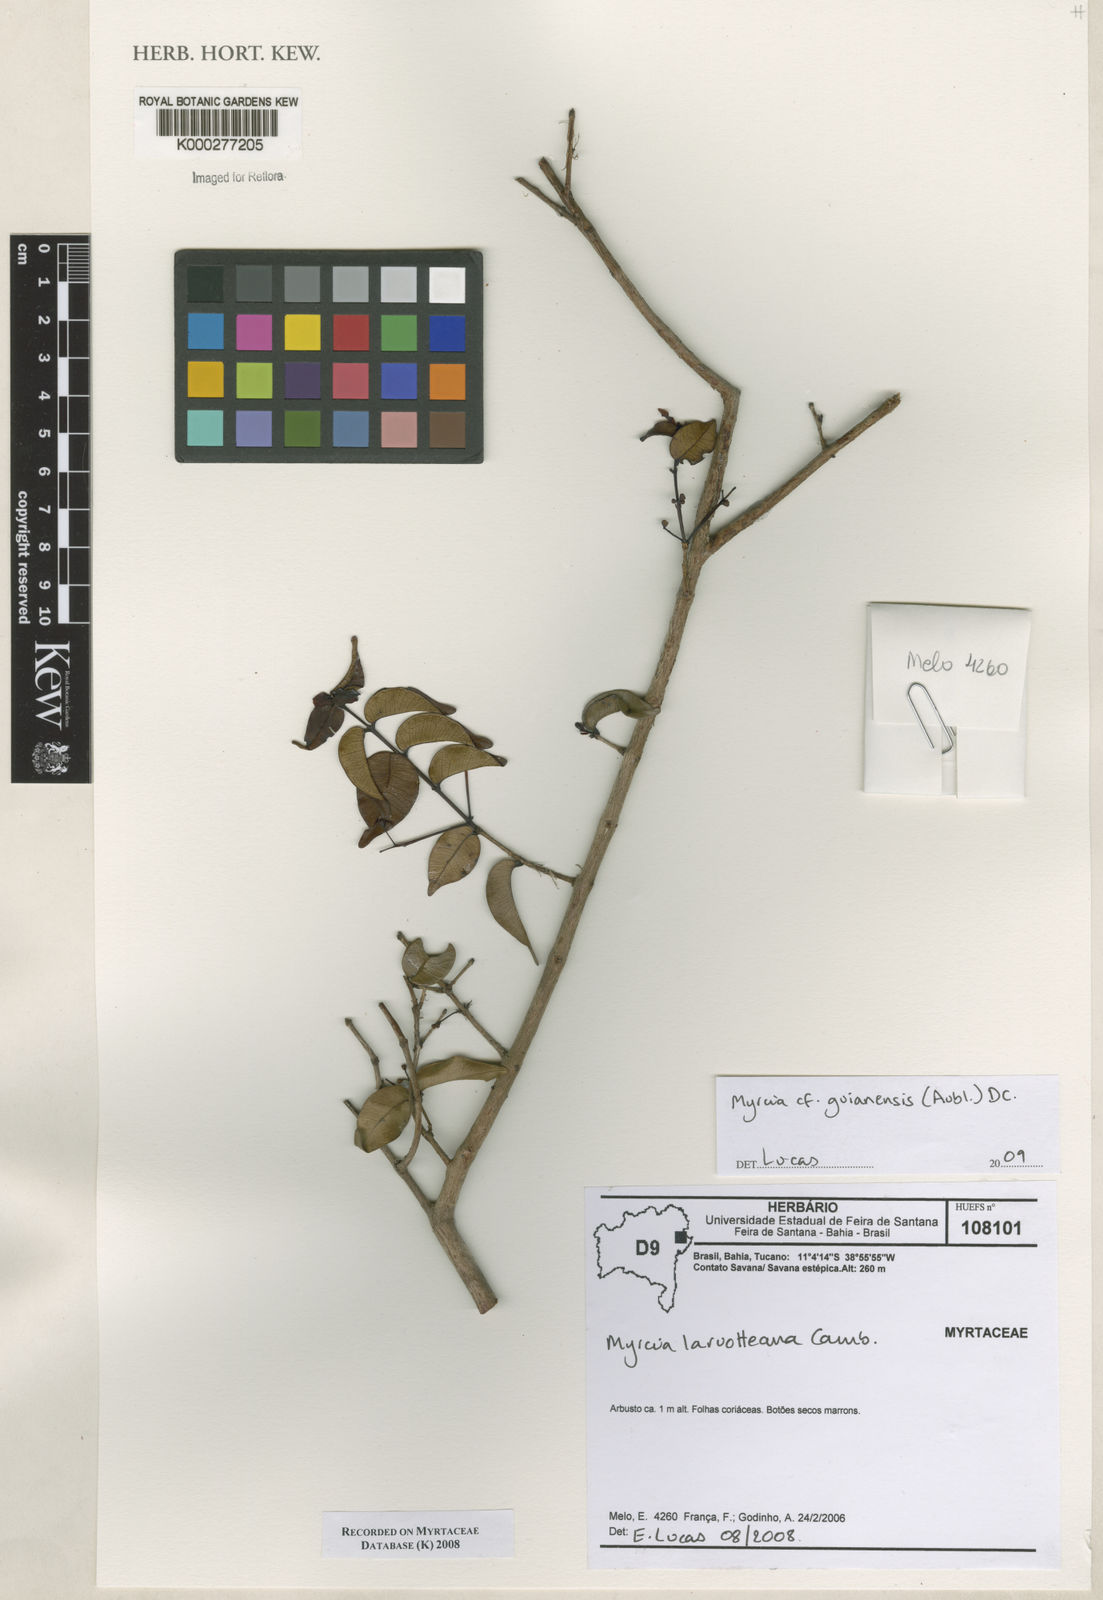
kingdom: Plantae
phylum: Tracheophyta
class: Magnoliopsida
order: Myrtales
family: Myrtaceae
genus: Myrcia
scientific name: Myrcia laruotteana
